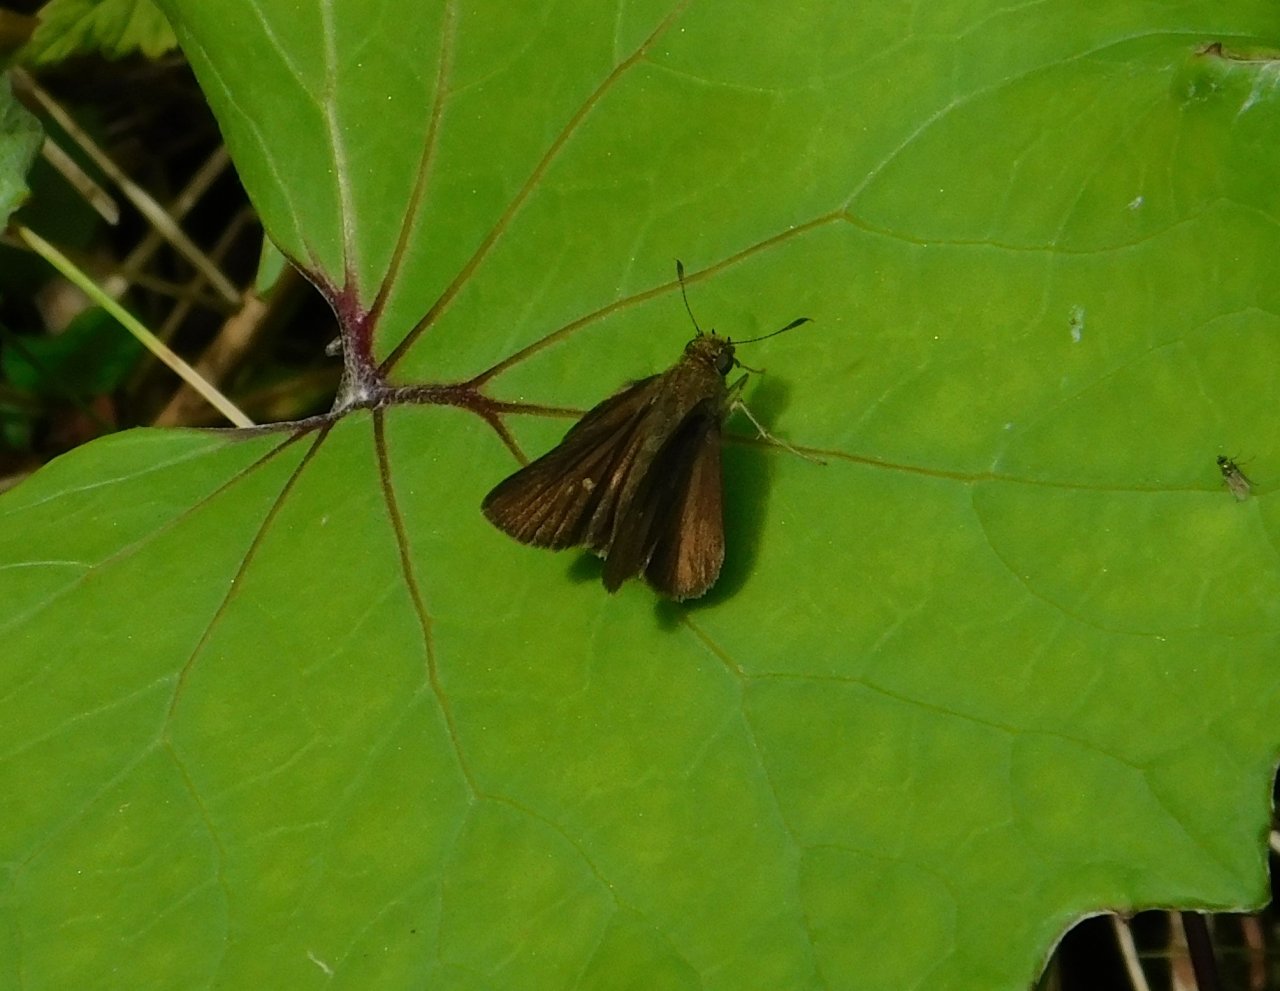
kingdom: Animalia
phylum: Arthropoda
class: Insecta
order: Lepidoptera
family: Hesperiidae
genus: Euphyes
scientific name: Euphyes vestris
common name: Dun Skipper
